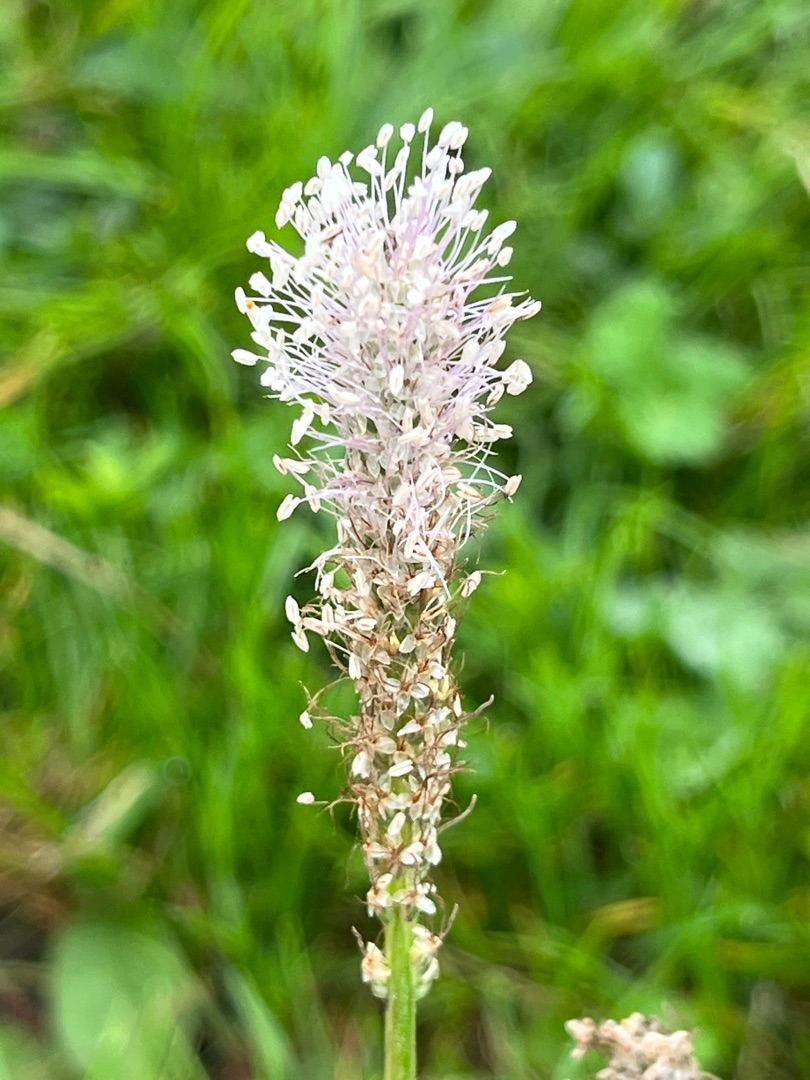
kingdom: Plantae
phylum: Tracheophyta
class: Magnoliopsida
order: Lamiales
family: Plantaginaceae
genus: Plantago
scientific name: Plantago media
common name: Dunet vejbred
